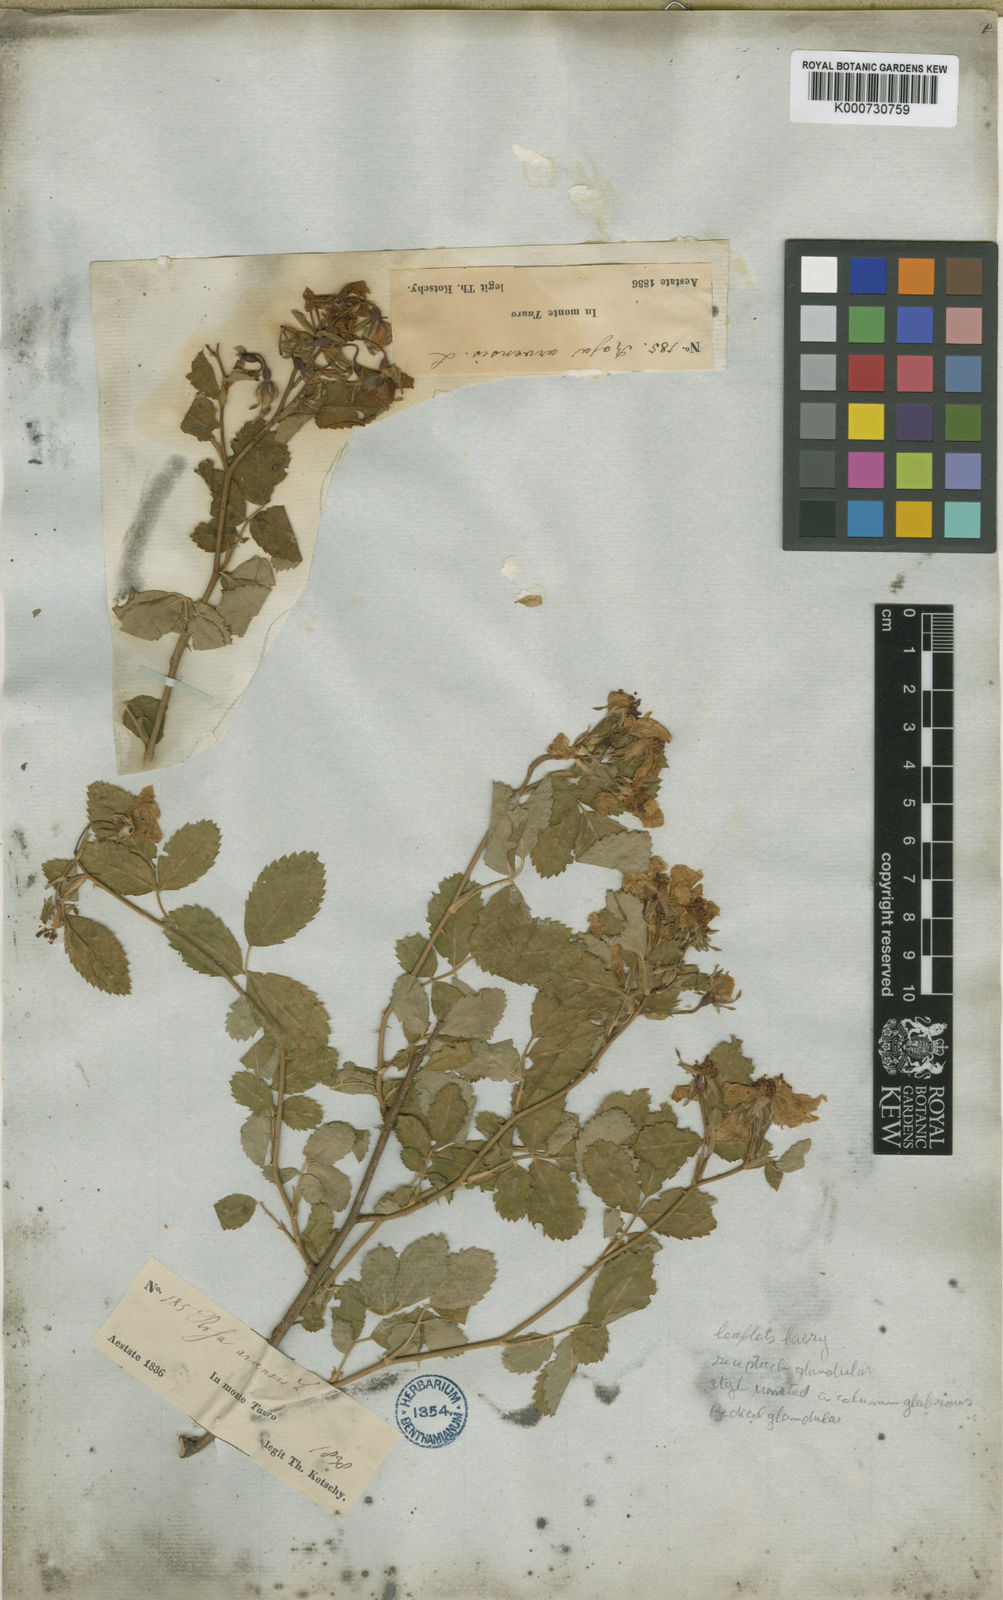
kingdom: Plantae
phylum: Tracheophyta
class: Magnoliopsida
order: Rosales
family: Rosaceae
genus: Rosa
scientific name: Rosa phoenicia
